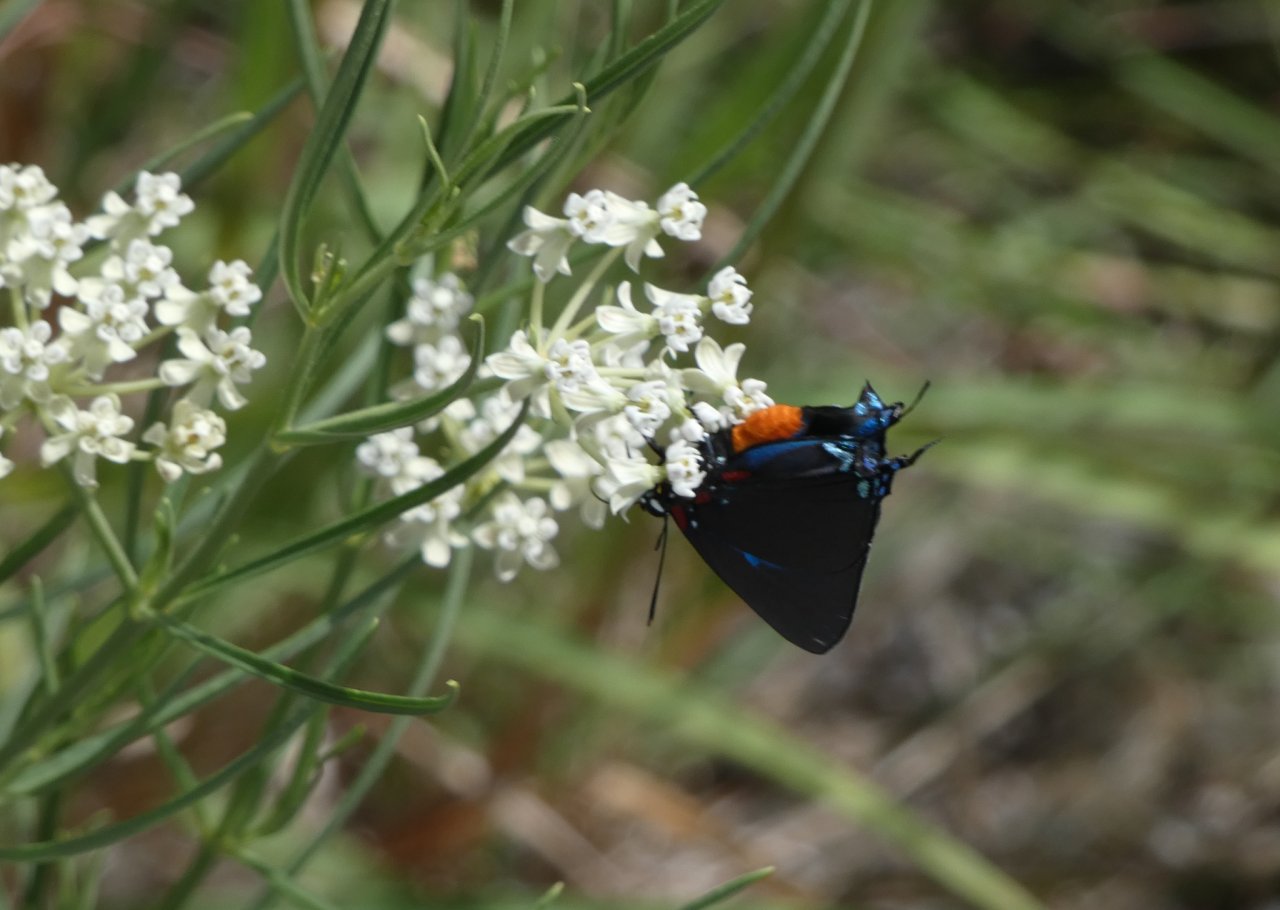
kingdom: Animalia
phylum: Arthropoda
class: Insecta
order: Lepidoptera
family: Lycaenidae
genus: Atlides
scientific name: Atlides halesus
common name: Great Purple Hairstreak
